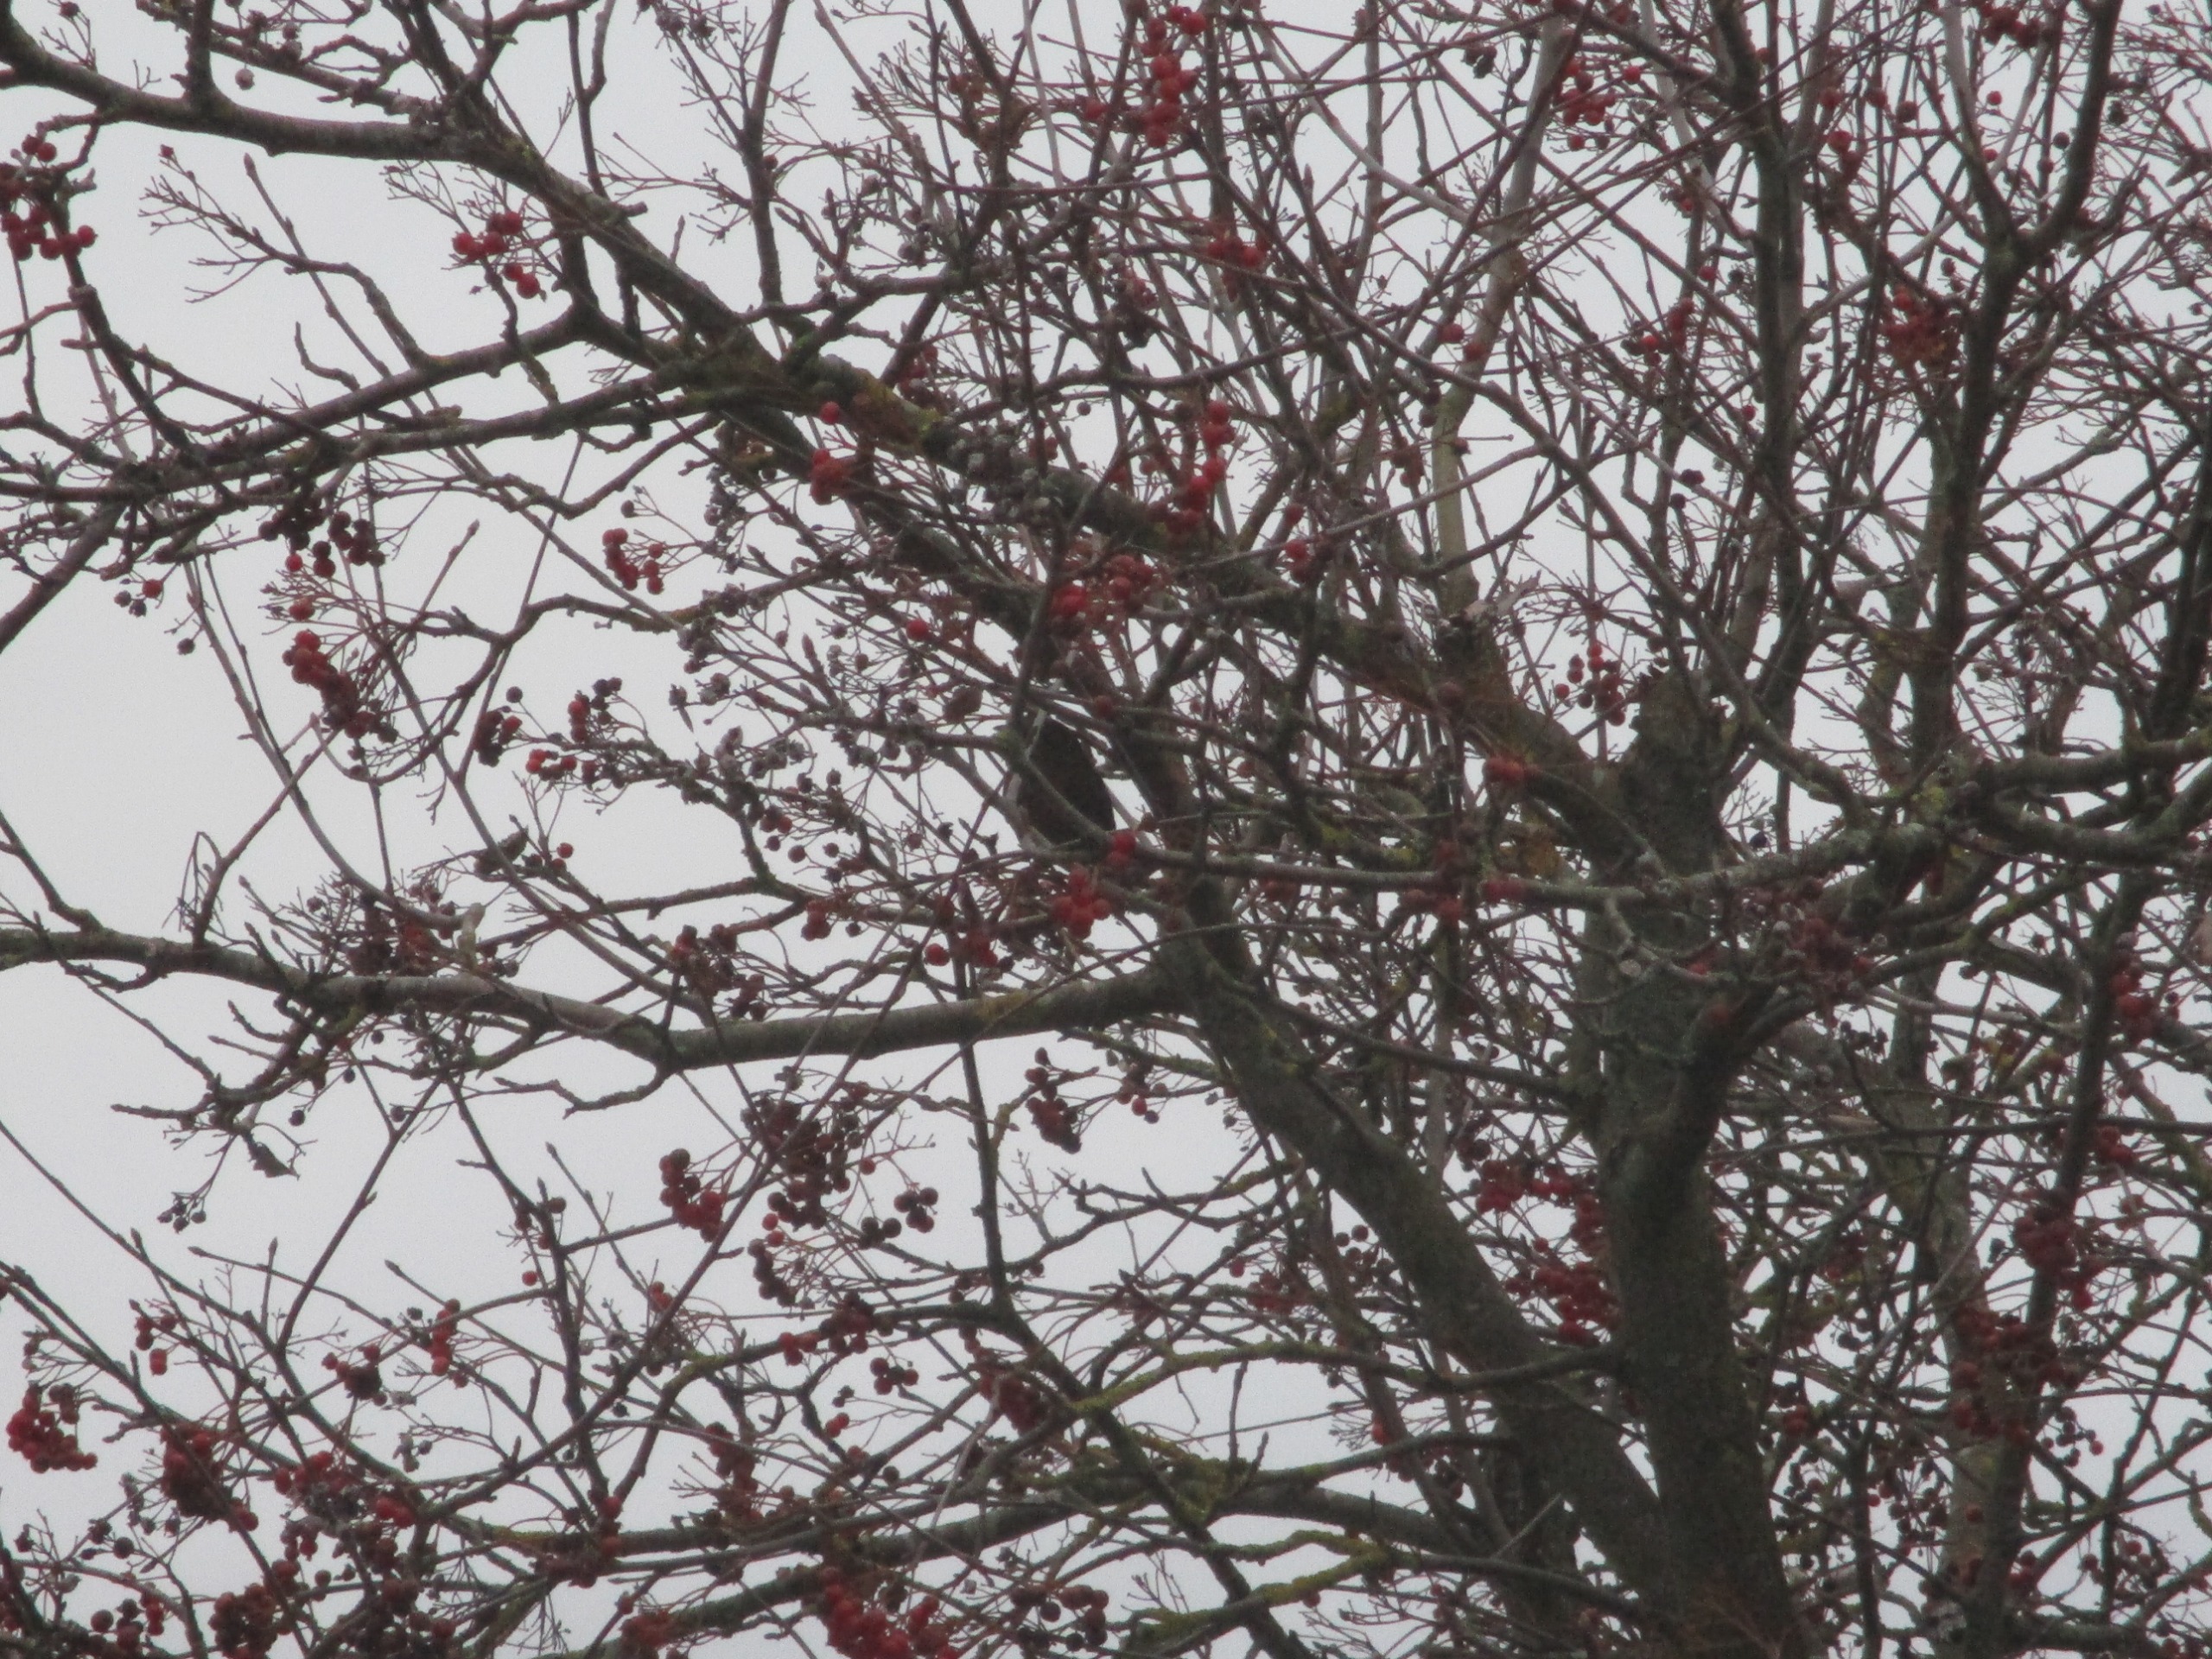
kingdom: Animalia
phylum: Chordata
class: Aves
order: Passeriformes
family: Turdidae
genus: Turdus
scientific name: Turdus merula
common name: Solsort
